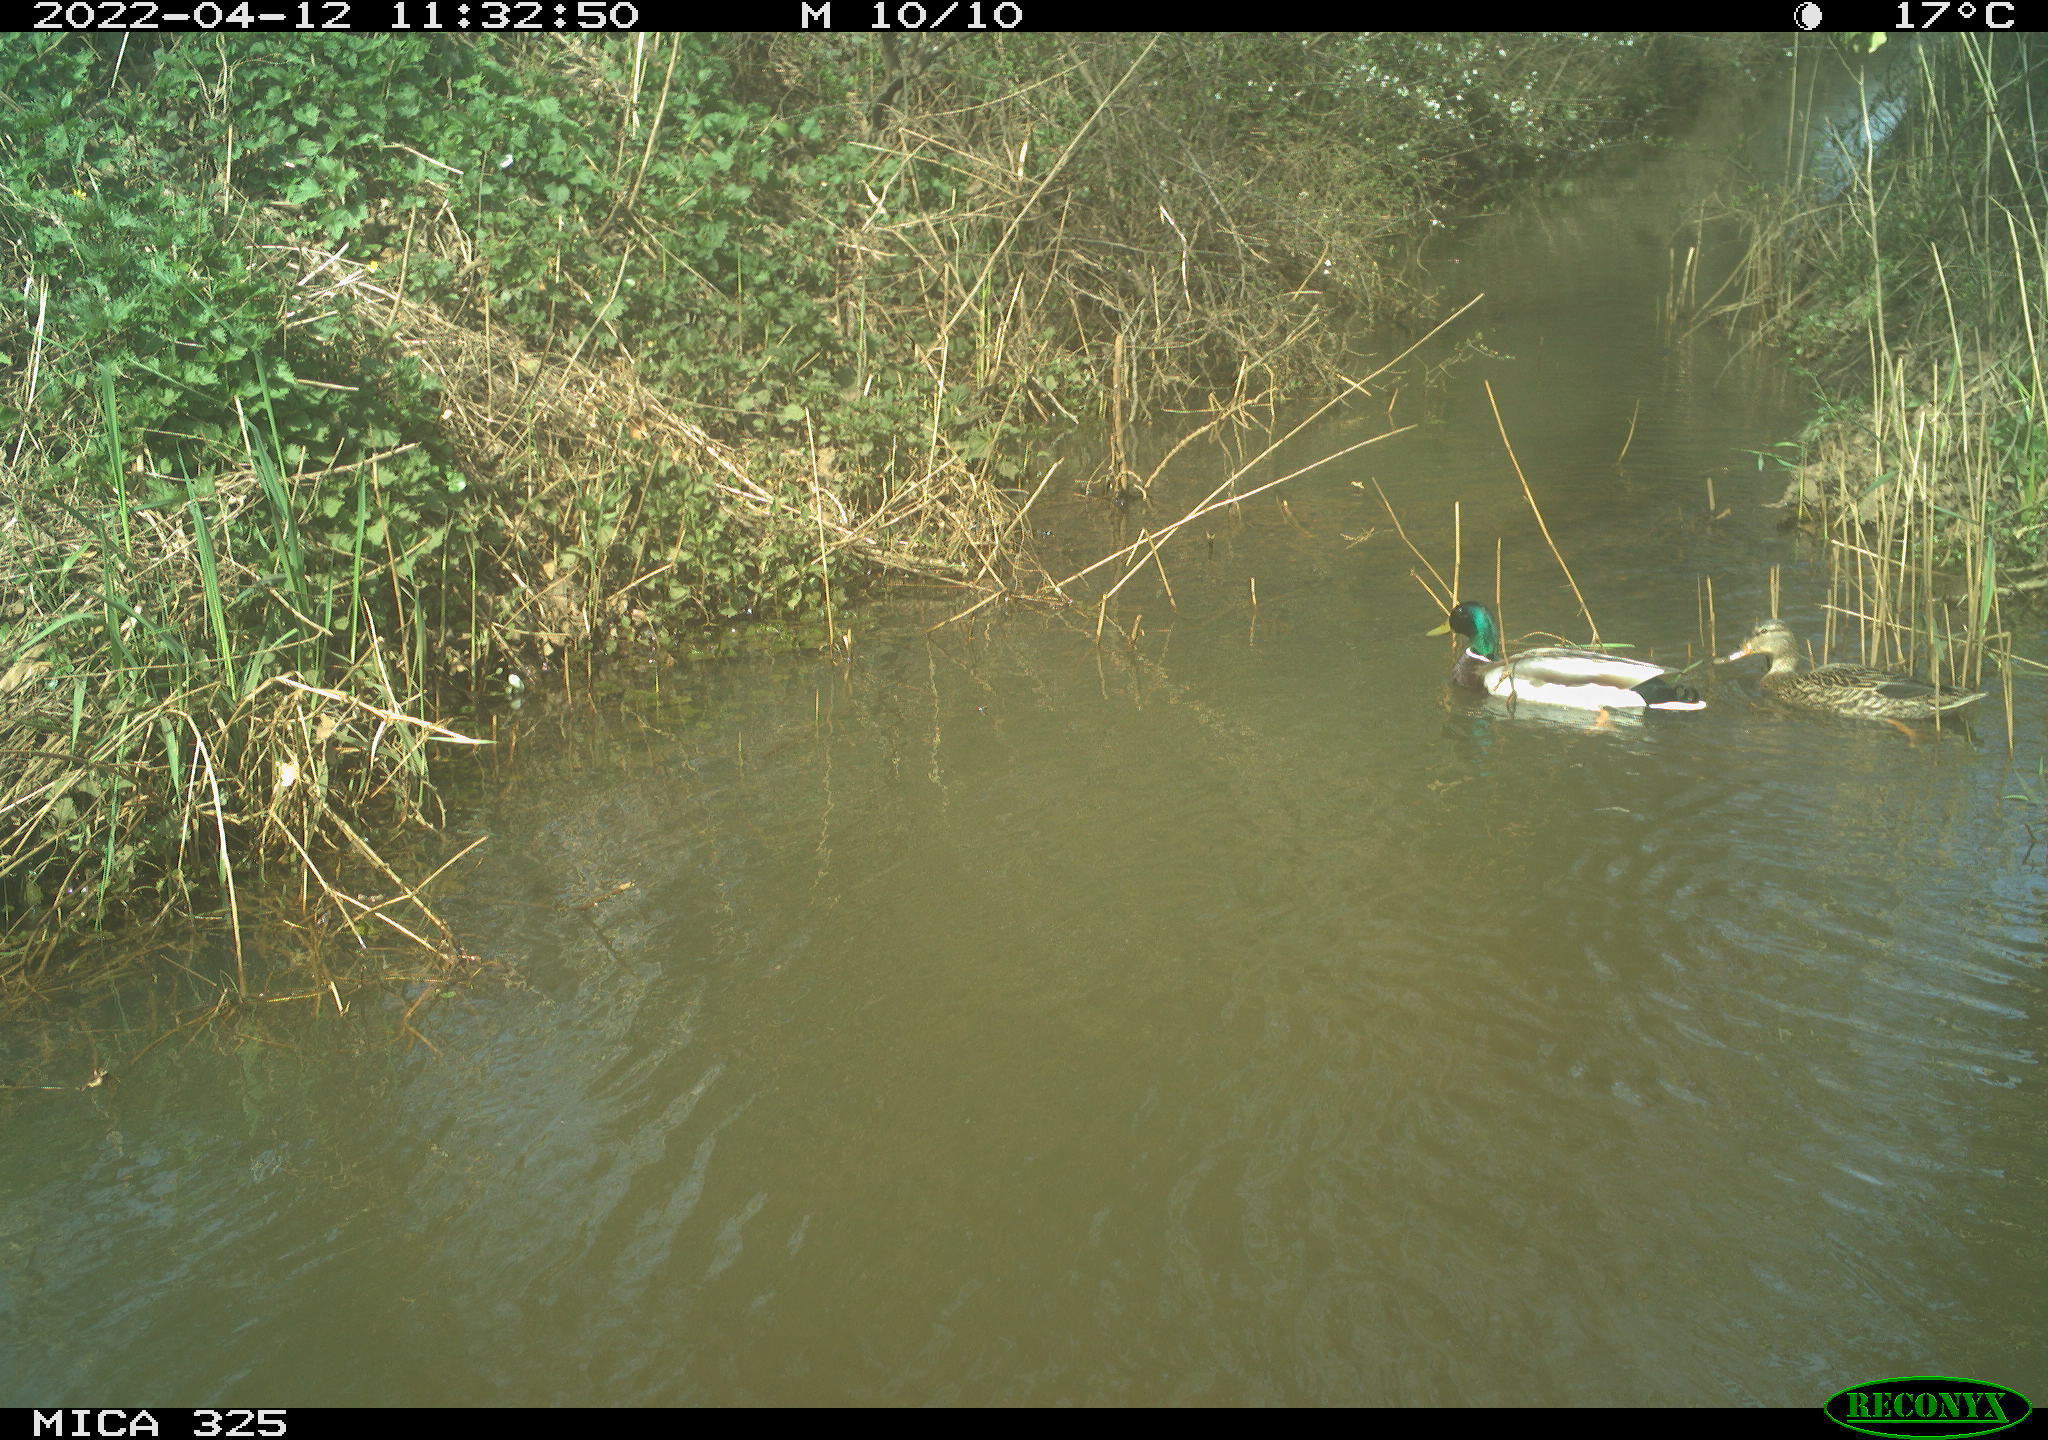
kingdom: Animalia
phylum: Chordata
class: Aves
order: Anseriformes
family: Anatidae
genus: Anas
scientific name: Anas platyrhynchos
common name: Mallard
